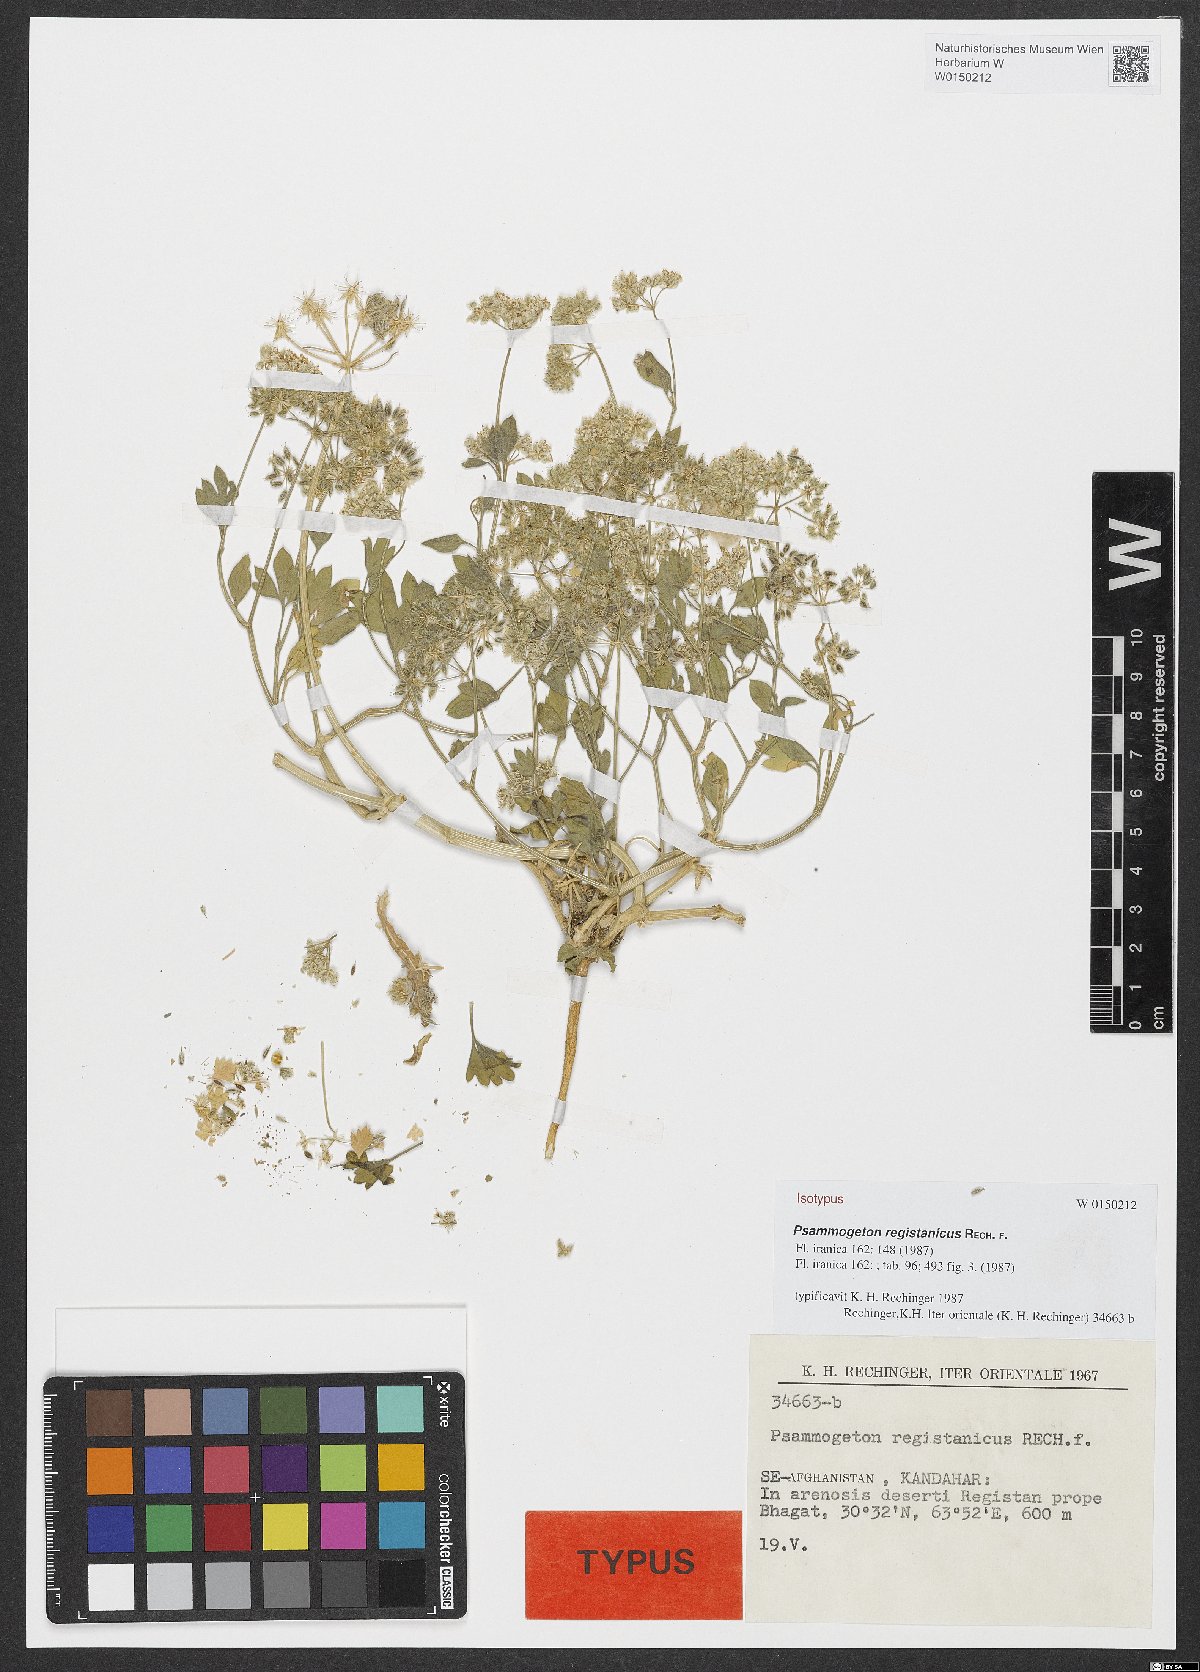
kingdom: Plantae
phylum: Tracheophyta
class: Magnoliopsida
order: Apiales
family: Apiaceae
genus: Psammogeton
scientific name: Psammogeton registanicus
